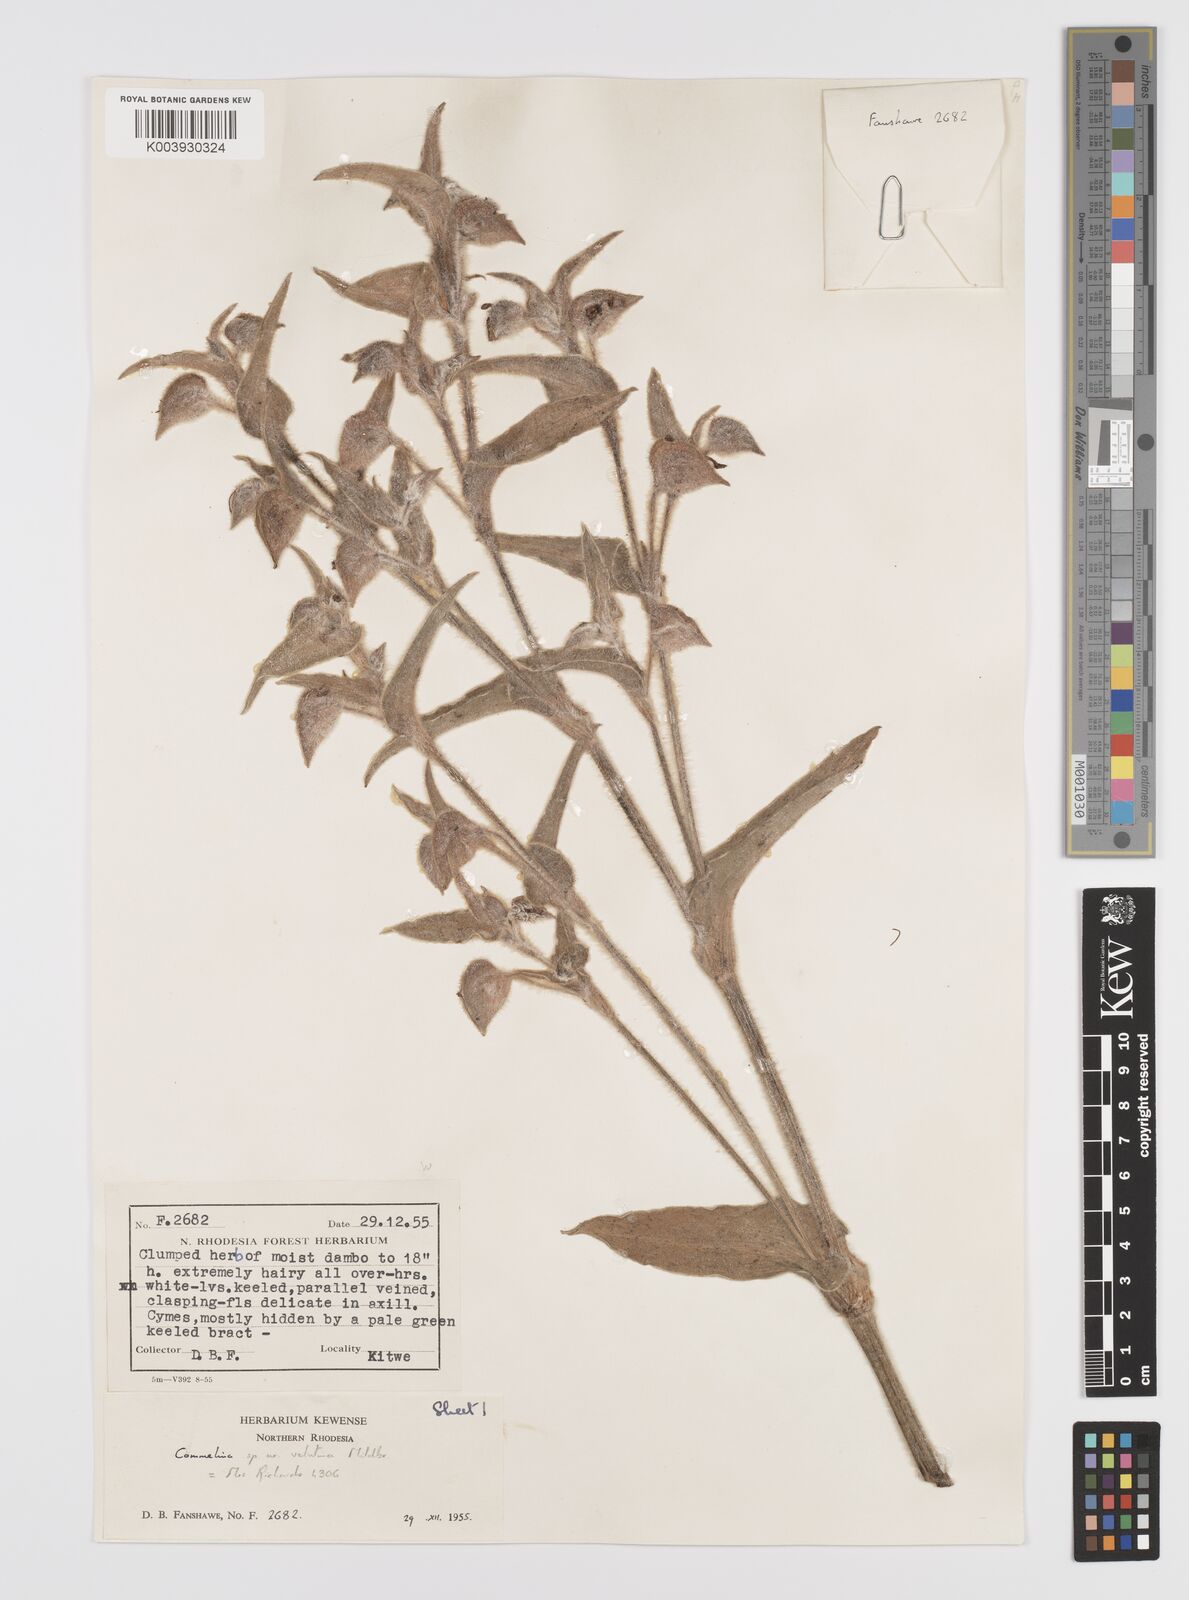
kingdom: Plantae
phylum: Tracheophyta
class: Liliopsida
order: Commelinales
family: Commelinaceae
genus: Commelina
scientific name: Commelina cecilae
